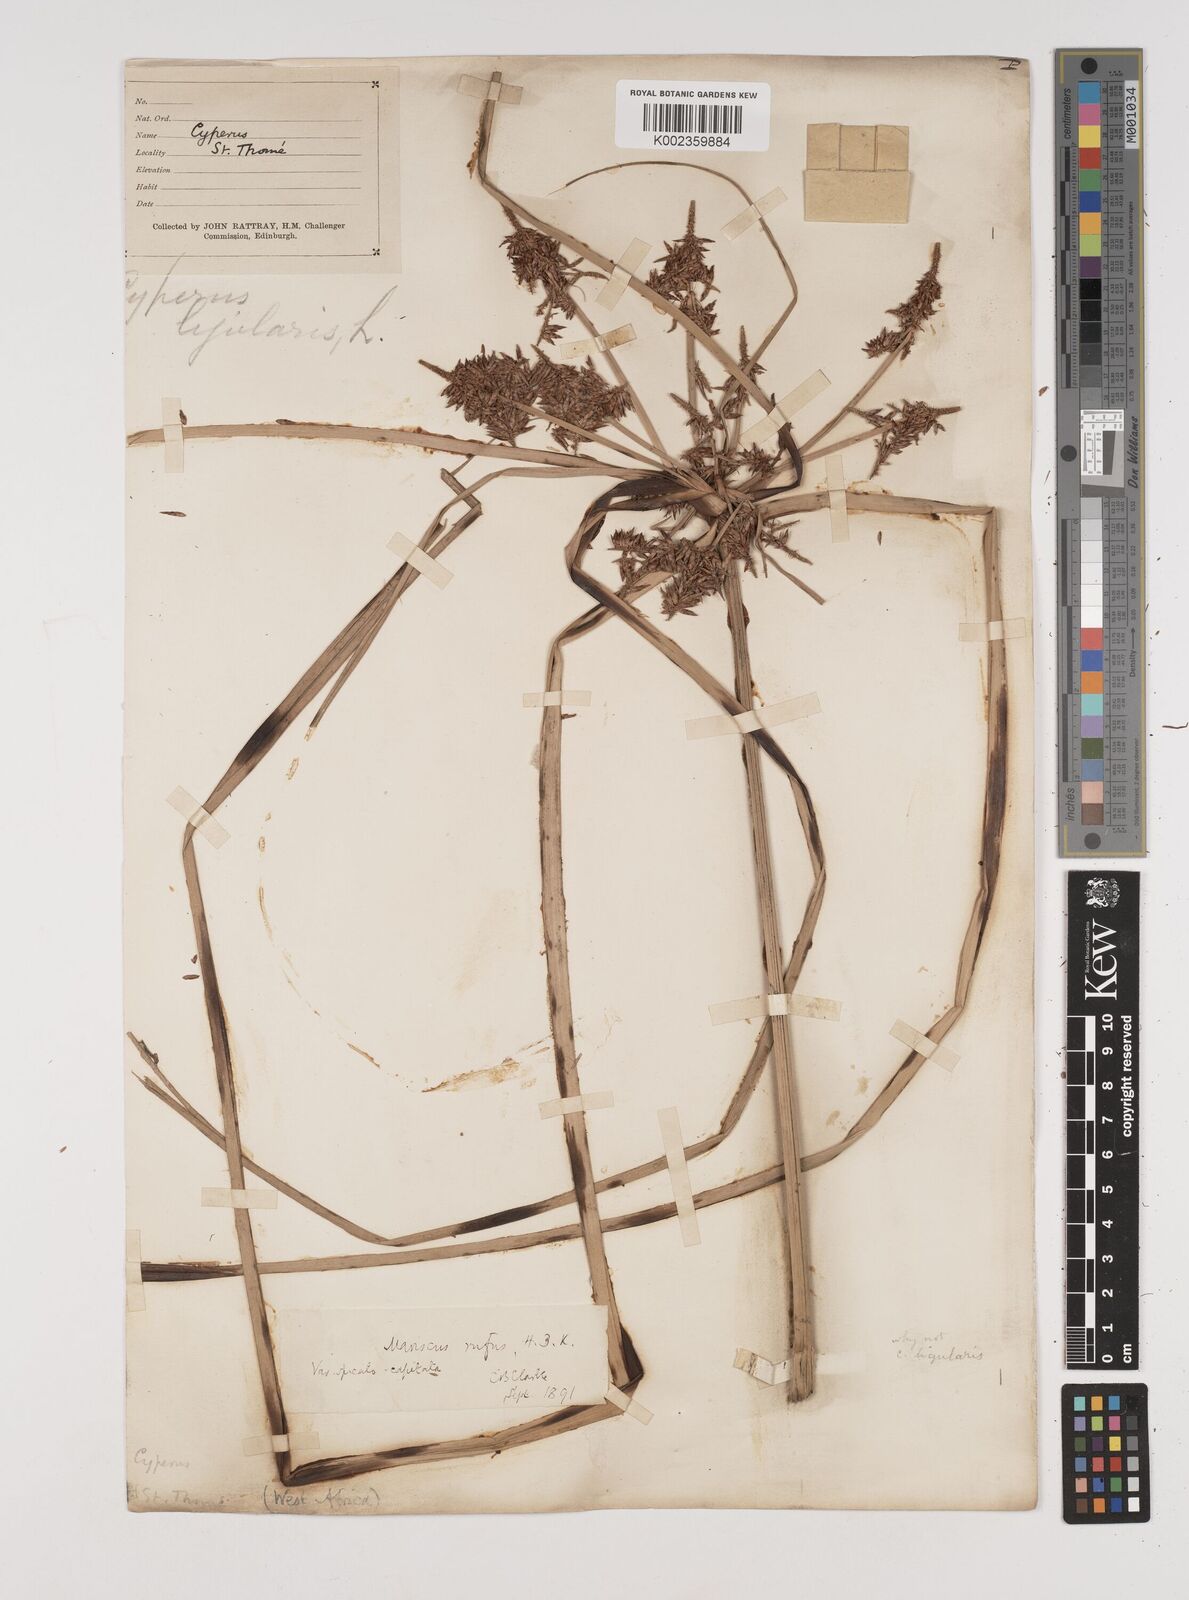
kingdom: Plantae
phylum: Tracheophyta
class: Liliopsida
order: Poales
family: Cyperaceae
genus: Cyperus
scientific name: Cyperus ligularis
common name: Swamp flat sedge
